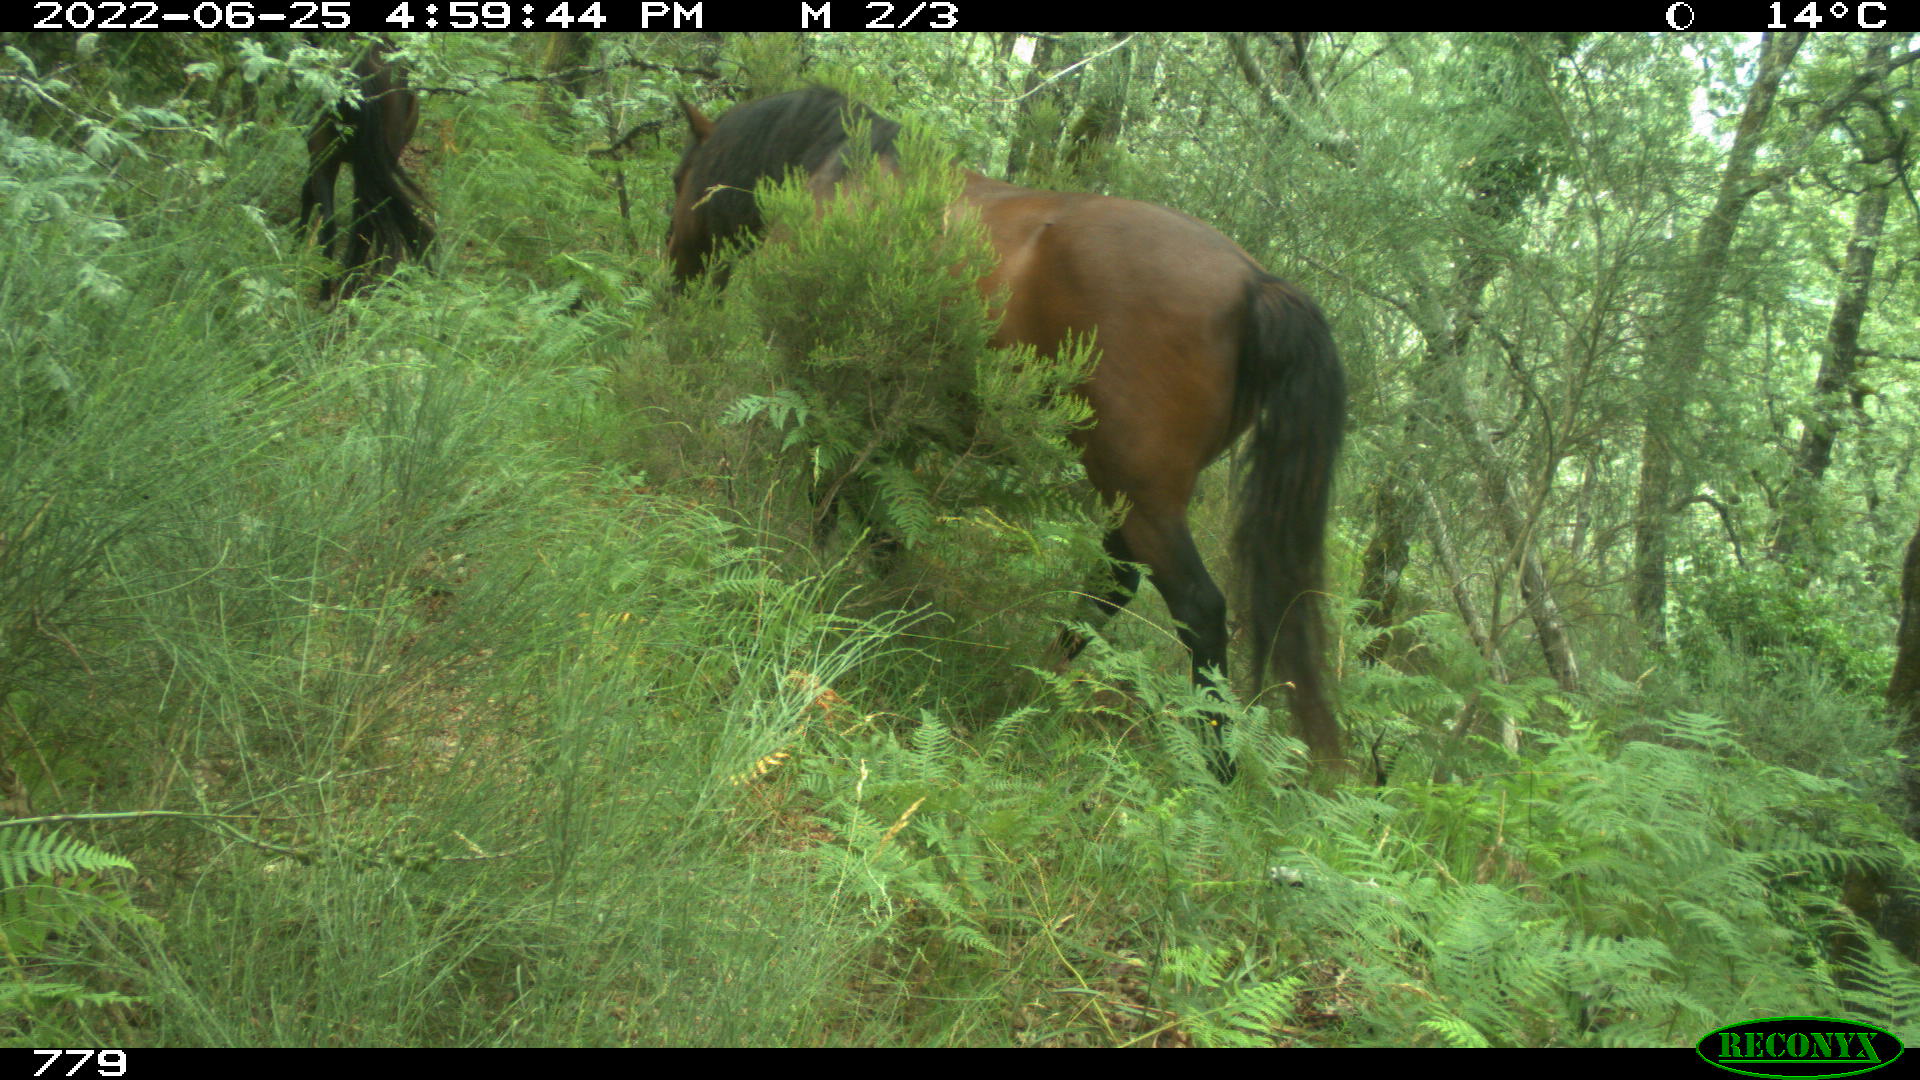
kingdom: Animalia
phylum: Chordata
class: Mammalia
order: Perissodactyla
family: Equidae
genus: Equus
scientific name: Equus caballus
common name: Horse
